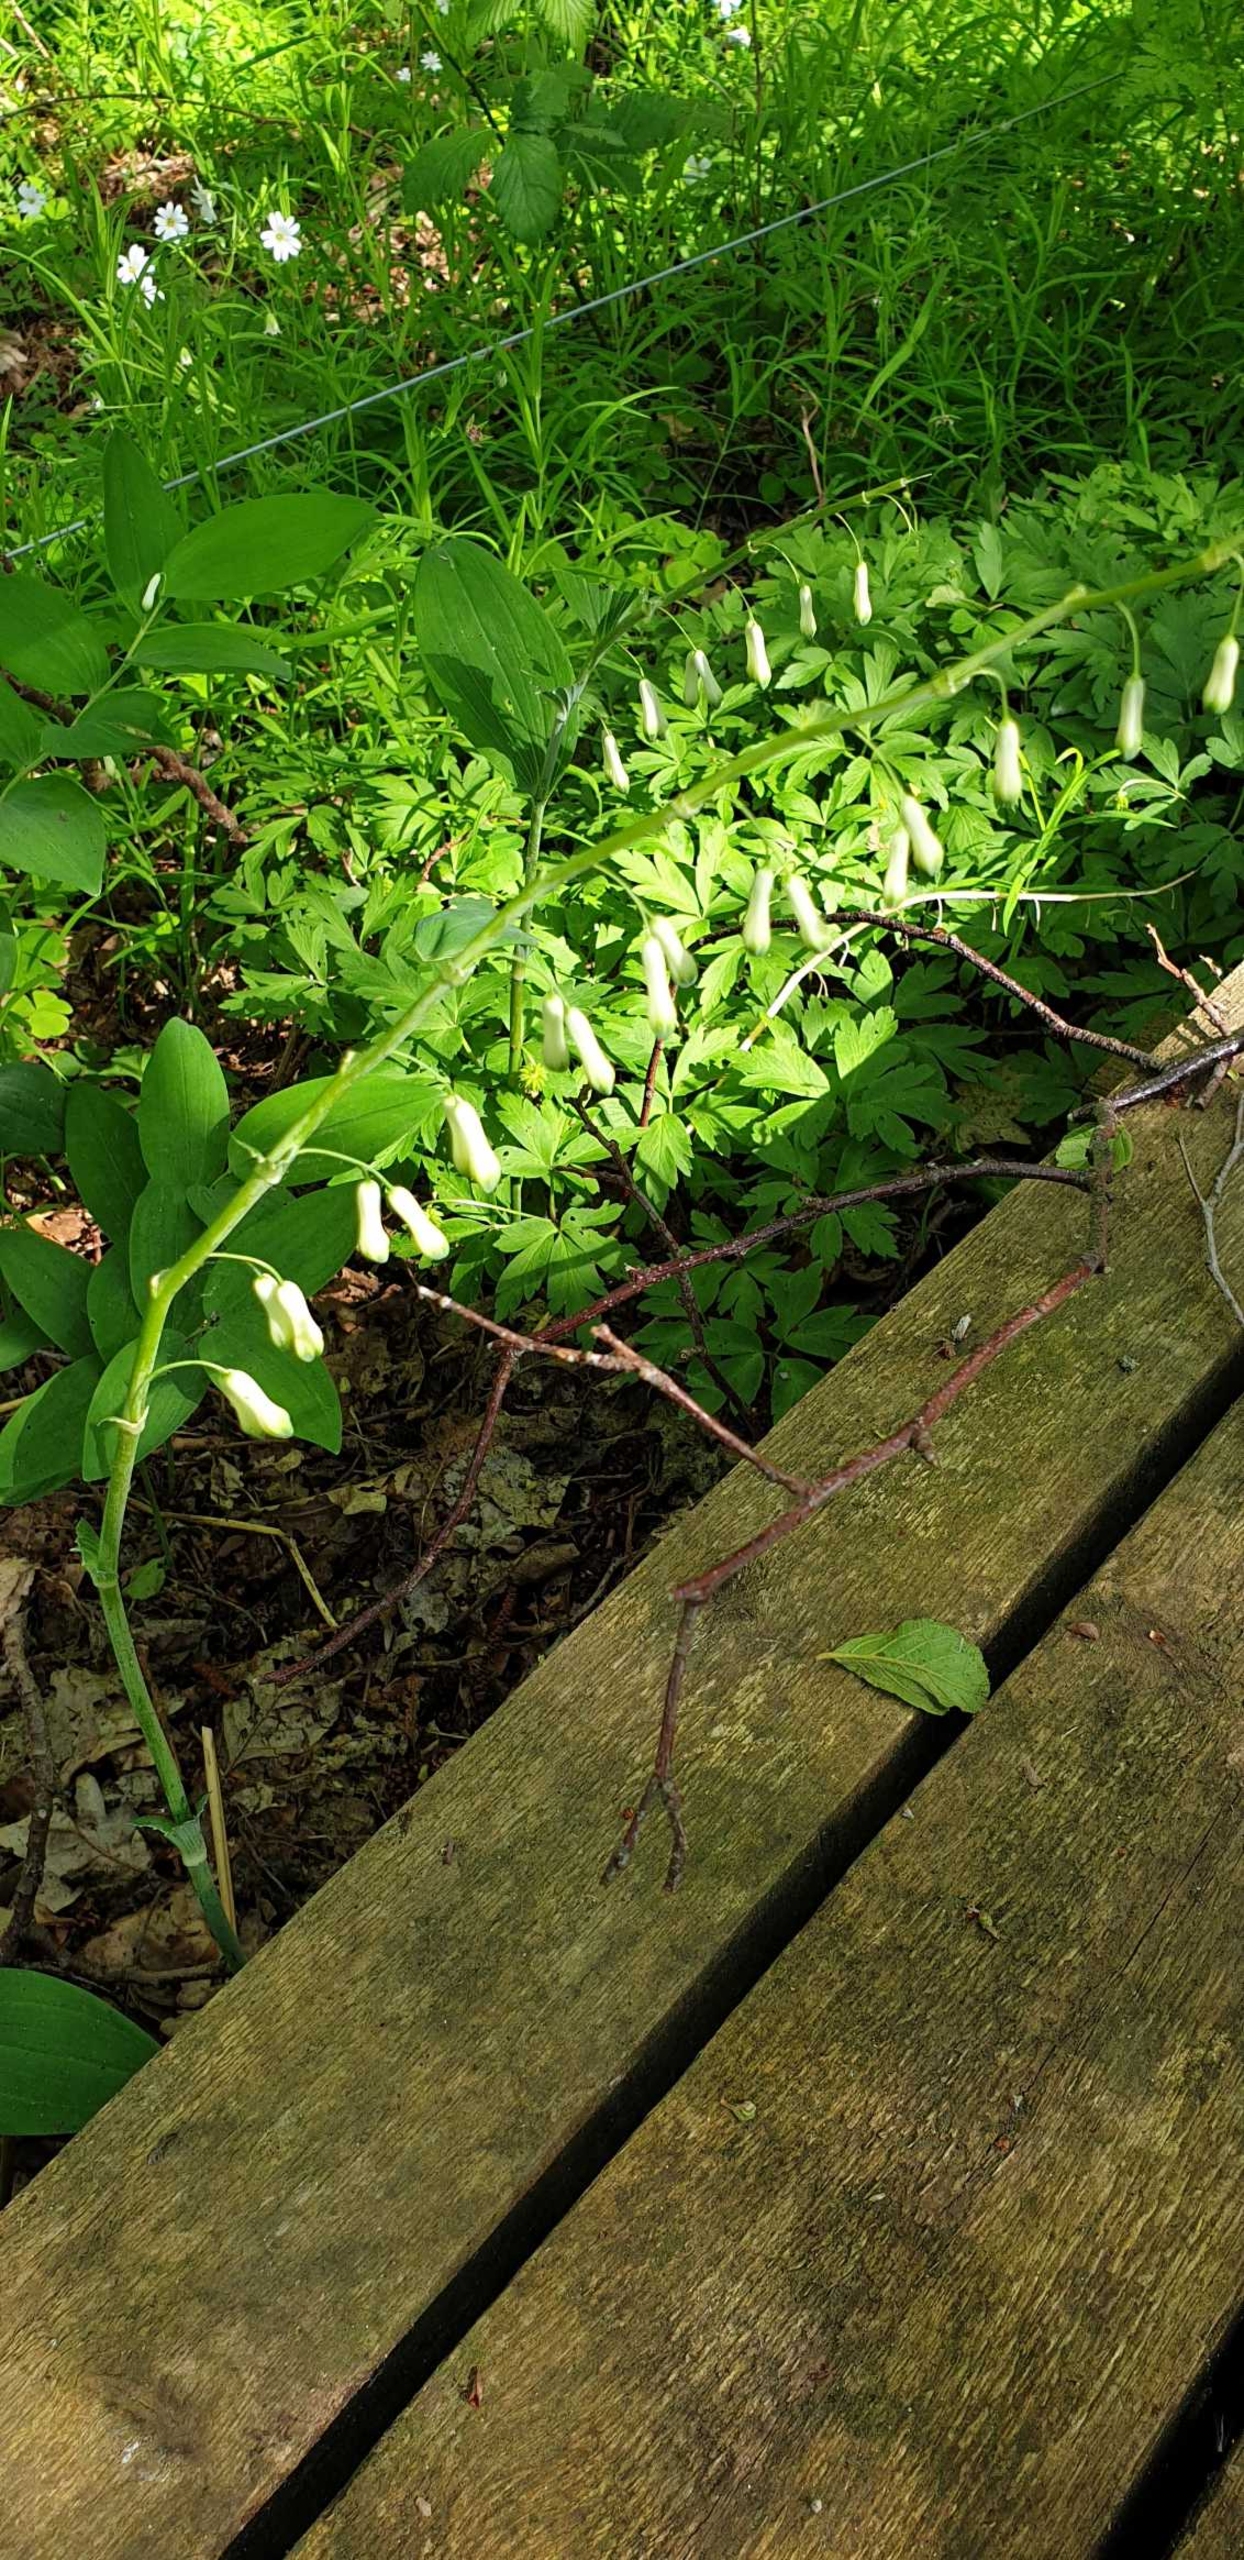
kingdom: Plantae
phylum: Tracheophyta
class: Liliopsida
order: Asparagales
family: Asparagaceae
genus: Polygonatum
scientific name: Polygonatum multiflorum
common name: Stor konval
